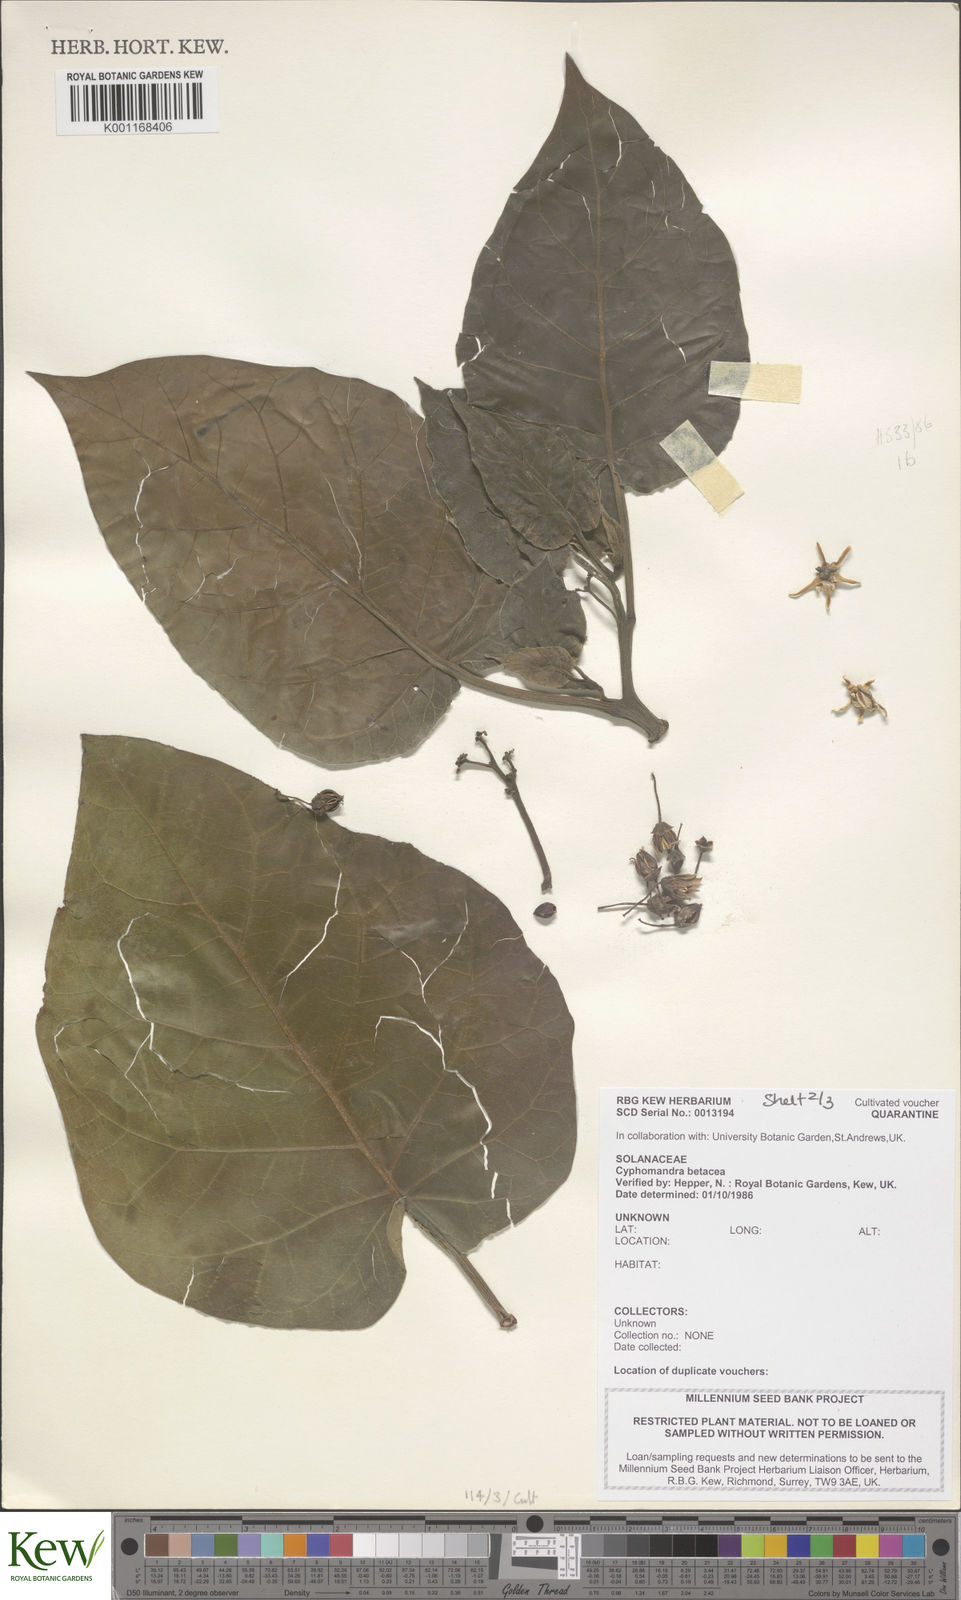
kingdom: Plantae
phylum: Tracheophyta
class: Magnoliopsida
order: Solanales
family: Solanaceae
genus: Solanum
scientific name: Solanum betaceum
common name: Tamarillo
